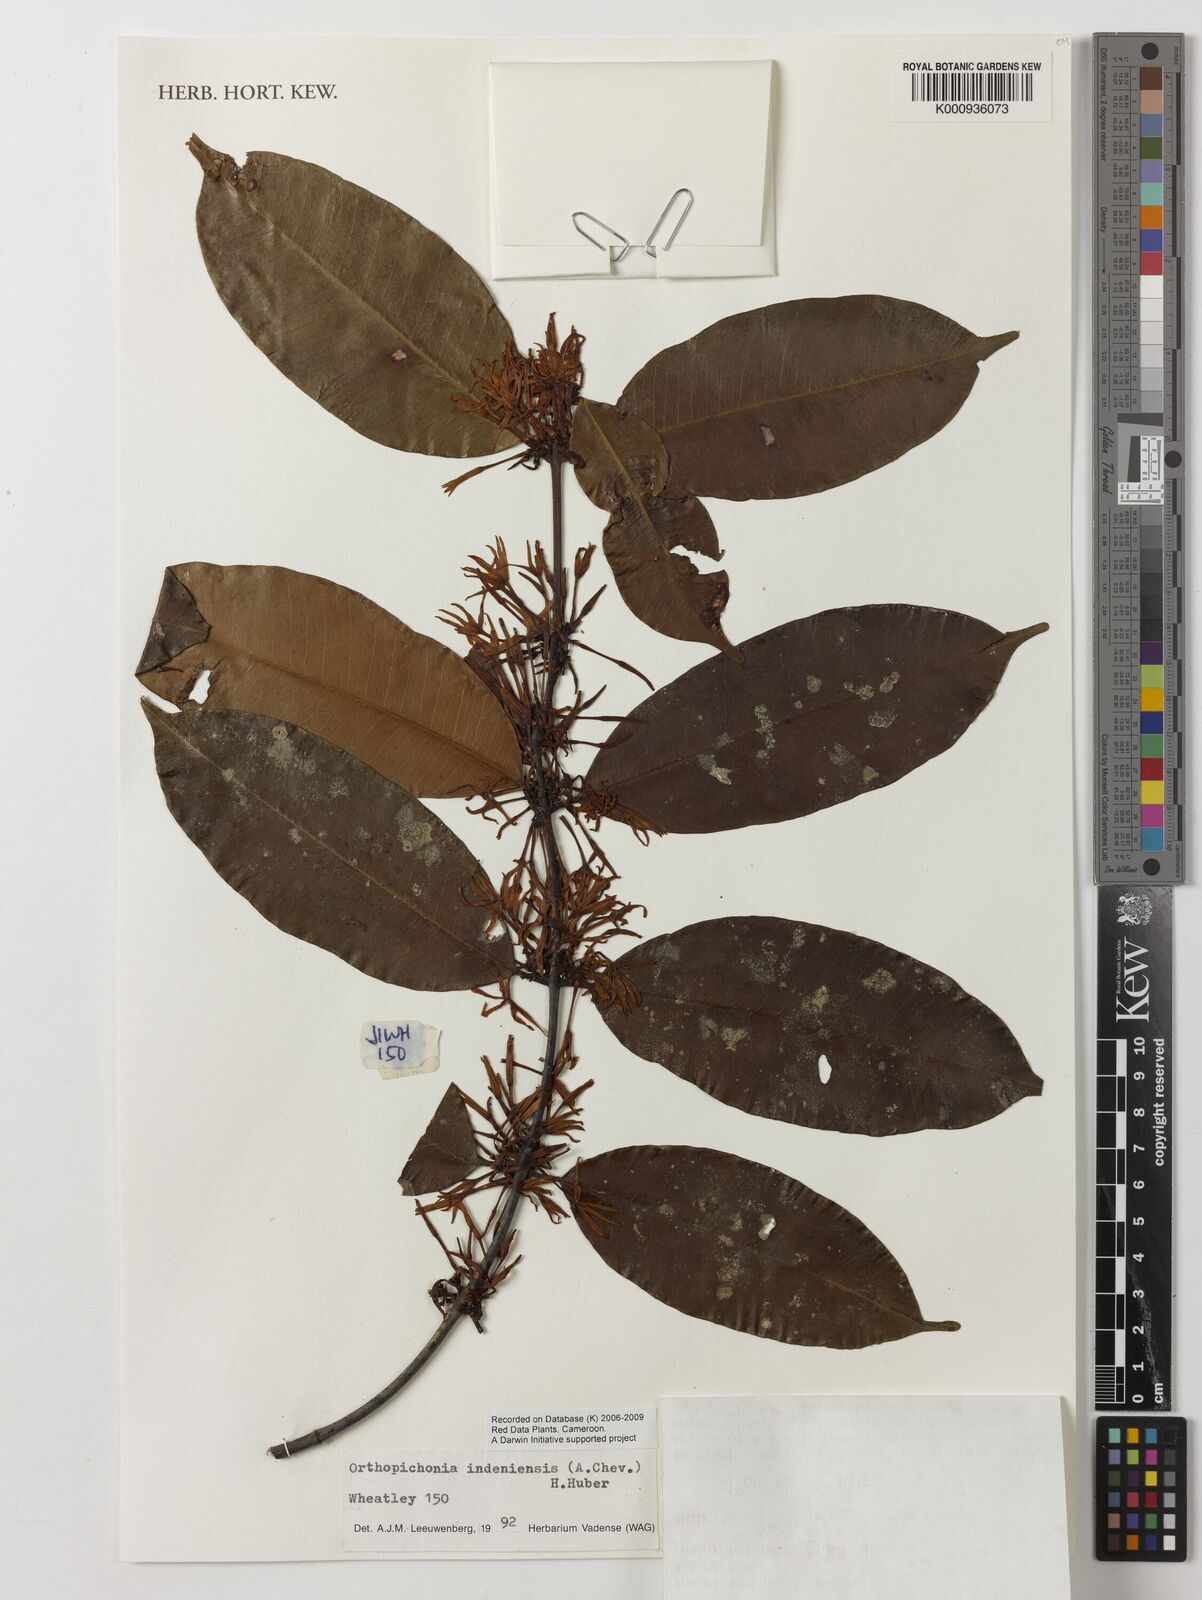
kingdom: Plantae
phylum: Tracheophyta
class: Magnoliopsida
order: Gentianales
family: Apocynaceae
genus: Orthopichonia
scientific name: Orthopichonia indeniensis
